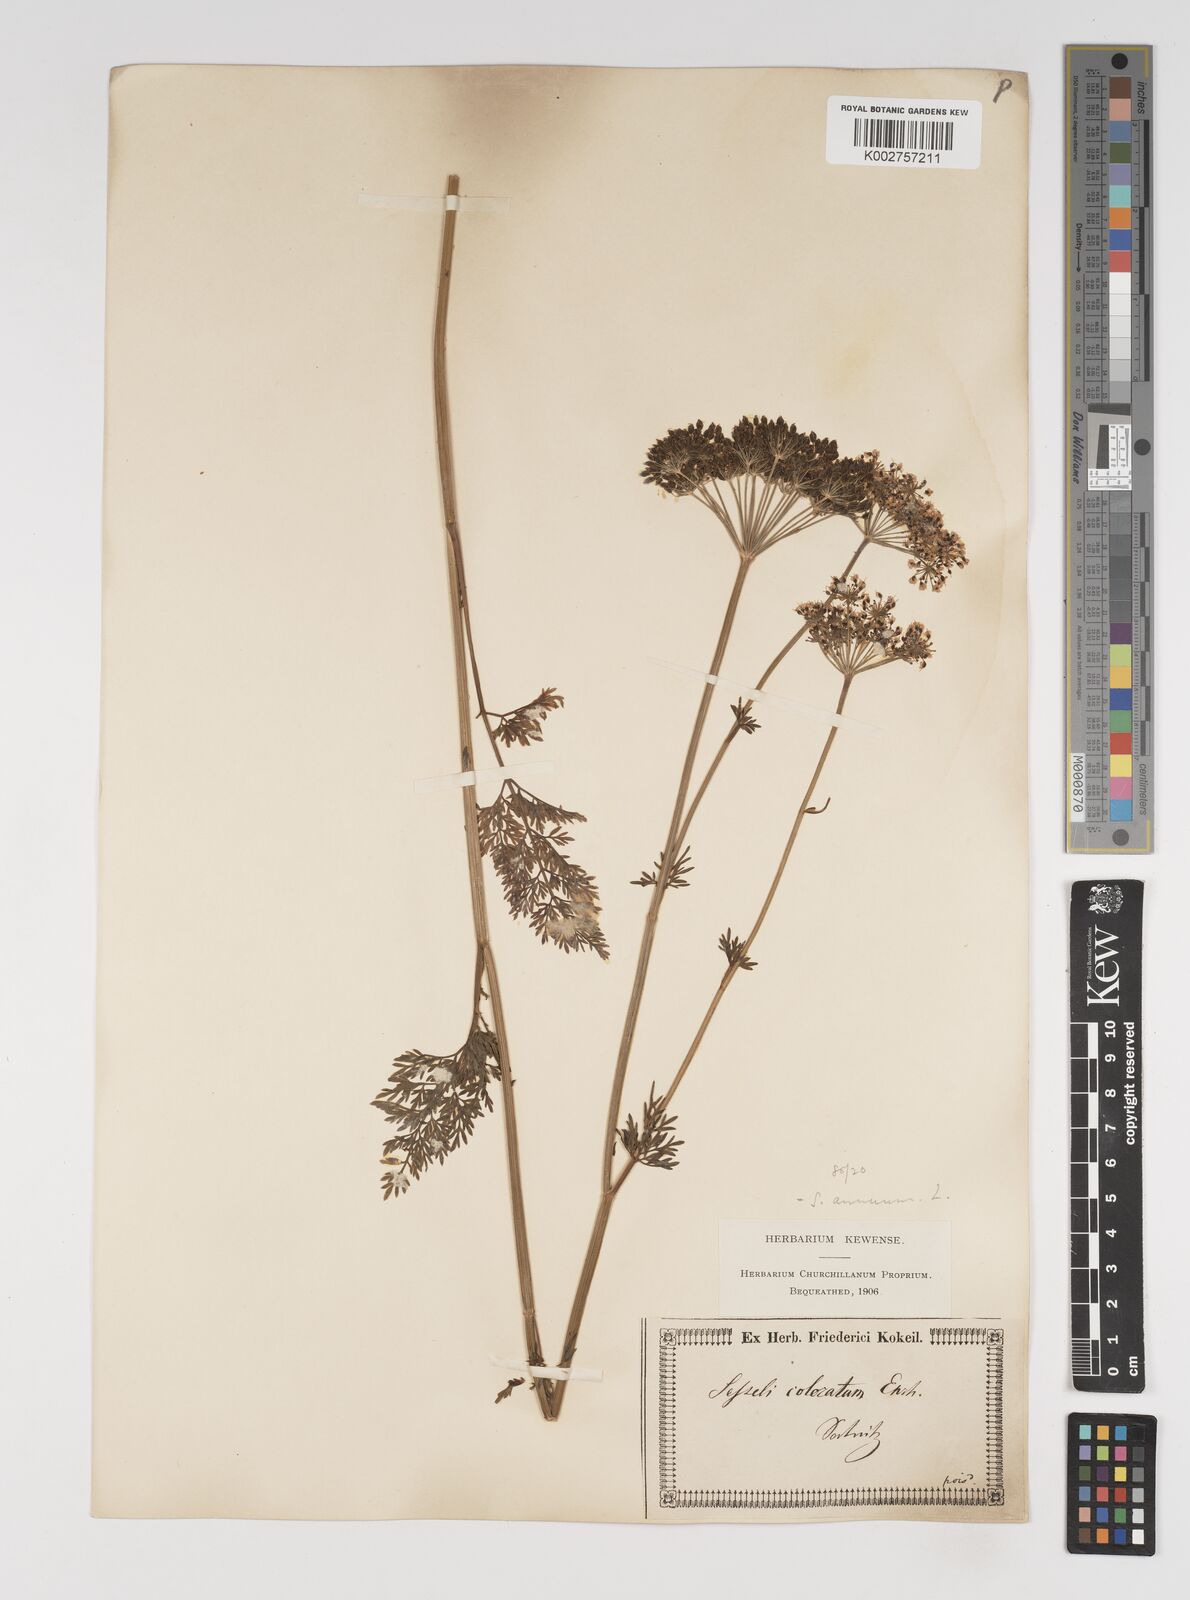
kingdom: Plantae
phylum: Tracheophyta
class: Magnoliopsida
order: Apiales
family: Apiaceae
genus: Seseli
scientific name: Seseli annuum
